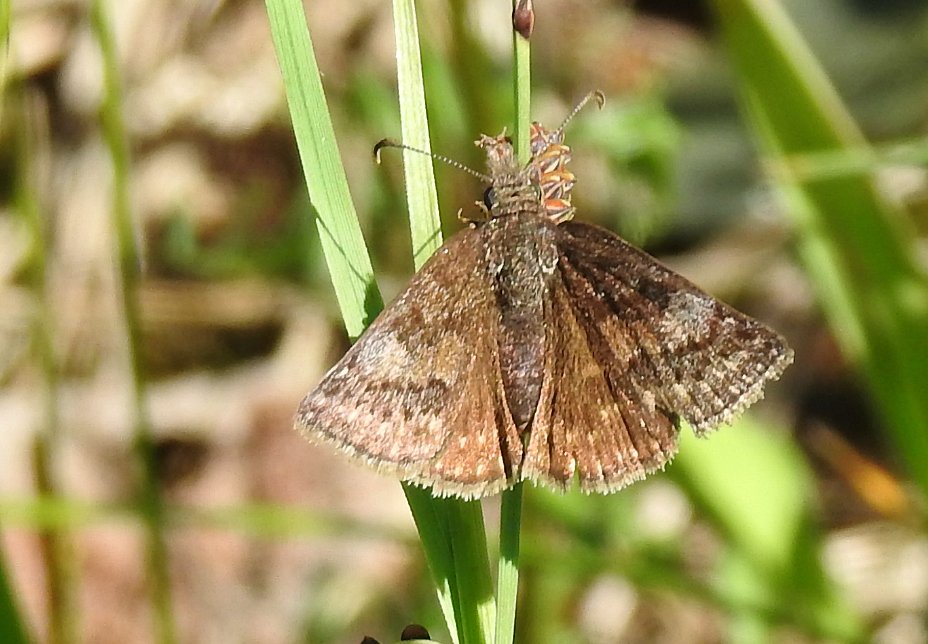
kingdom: Animalia
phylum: Arthropoda
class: Insecta
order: Lepidoptera
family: Hesperiidae
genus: Erynnis
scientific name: Erynnis icelus
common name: Dreamy Duskywing
